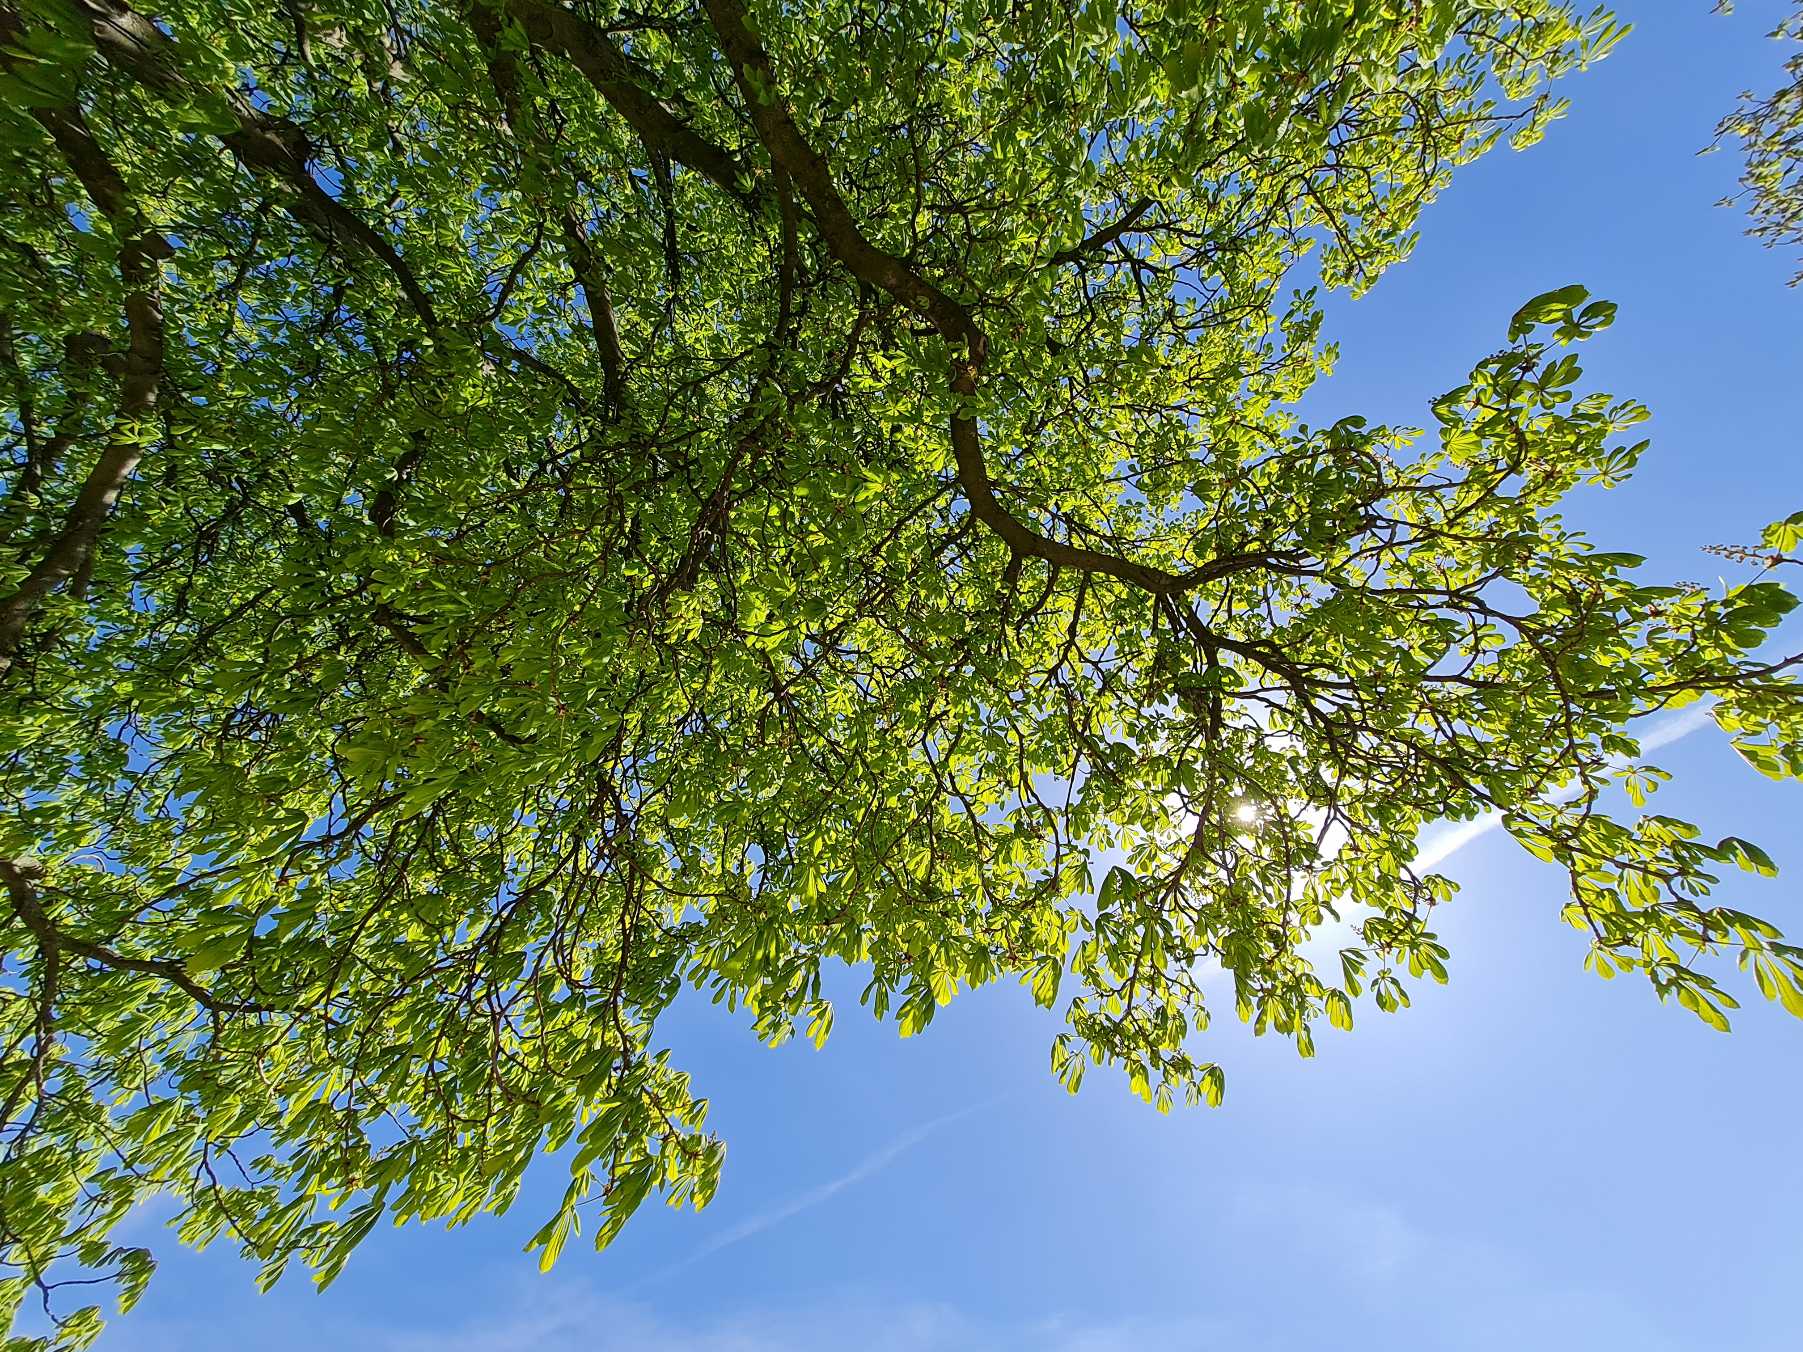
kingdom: Plantae
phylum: Tracheophyta
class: Magnoliopsida
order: Sapindales
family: Sapindaceae
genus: Aesculus
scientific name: Aesculus
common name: Hestekastanieslægten
